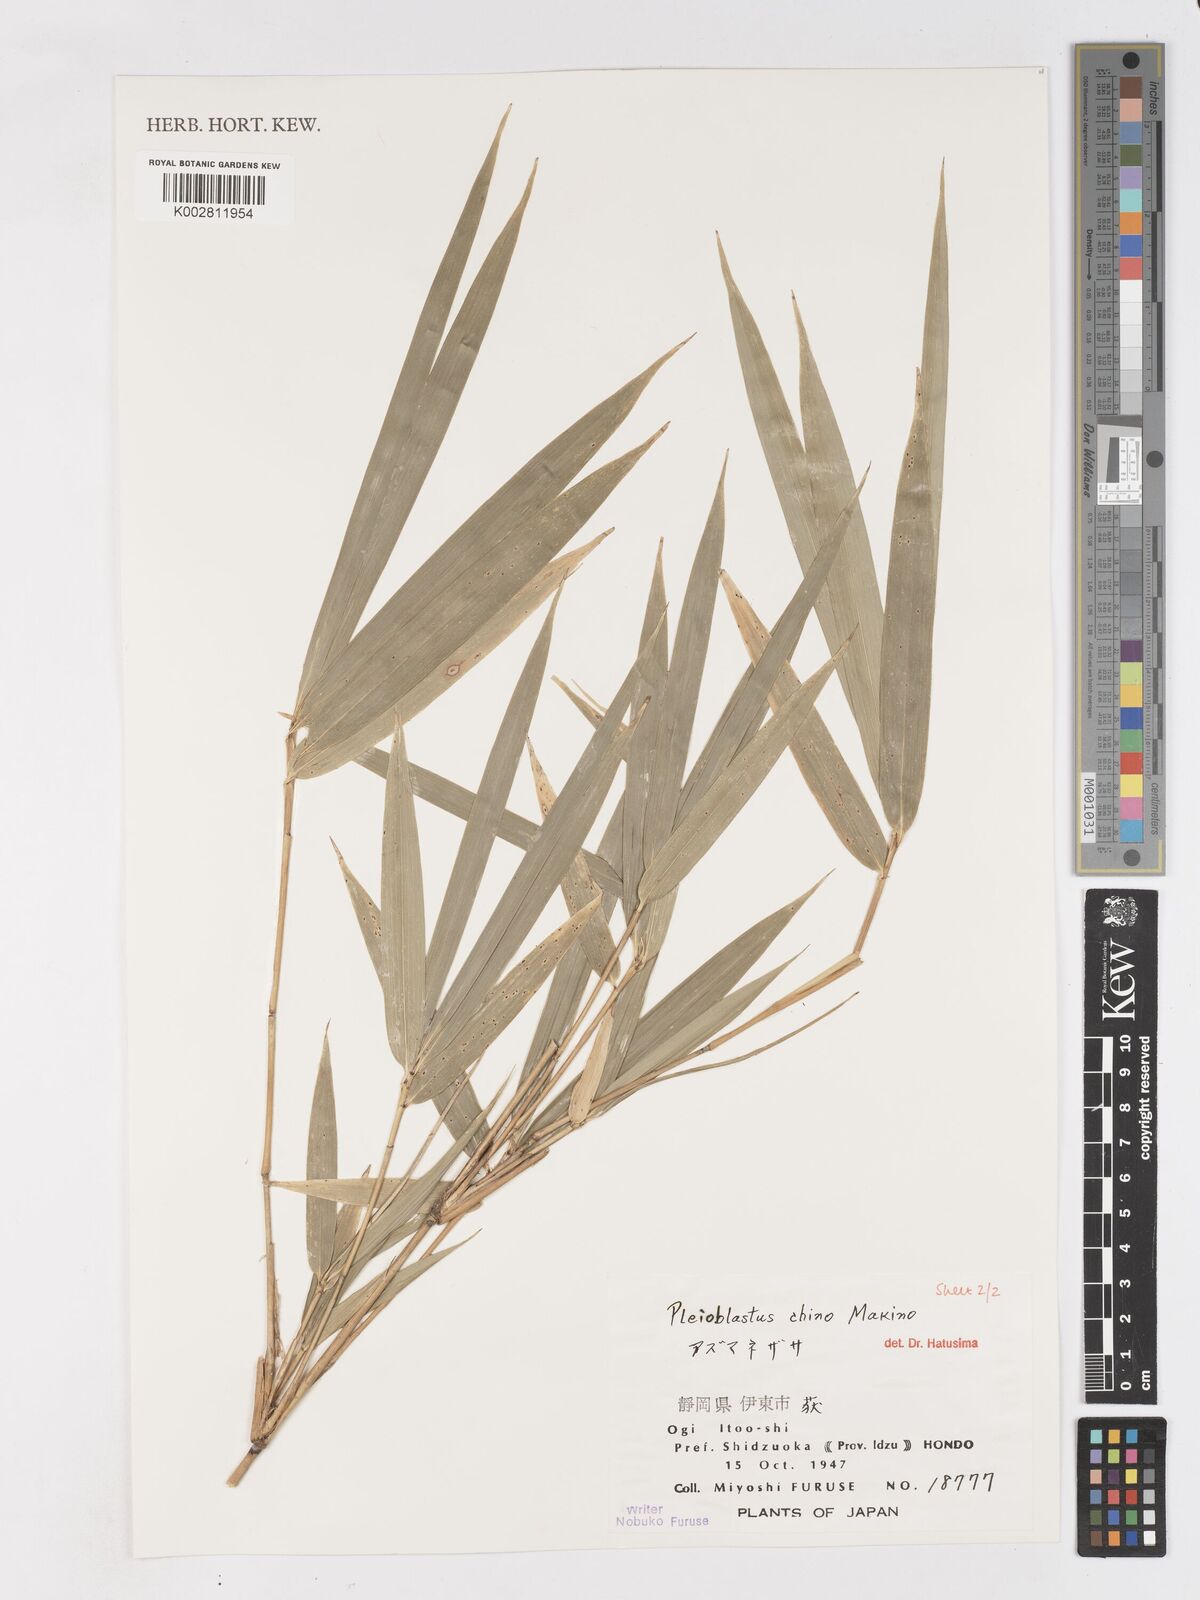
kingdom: Plantae
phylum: Tracheophyta
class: Liliopsida
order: Poales
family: Poaceae
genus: Pleioblastus
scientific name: Pleioblastus argenteostriatus
